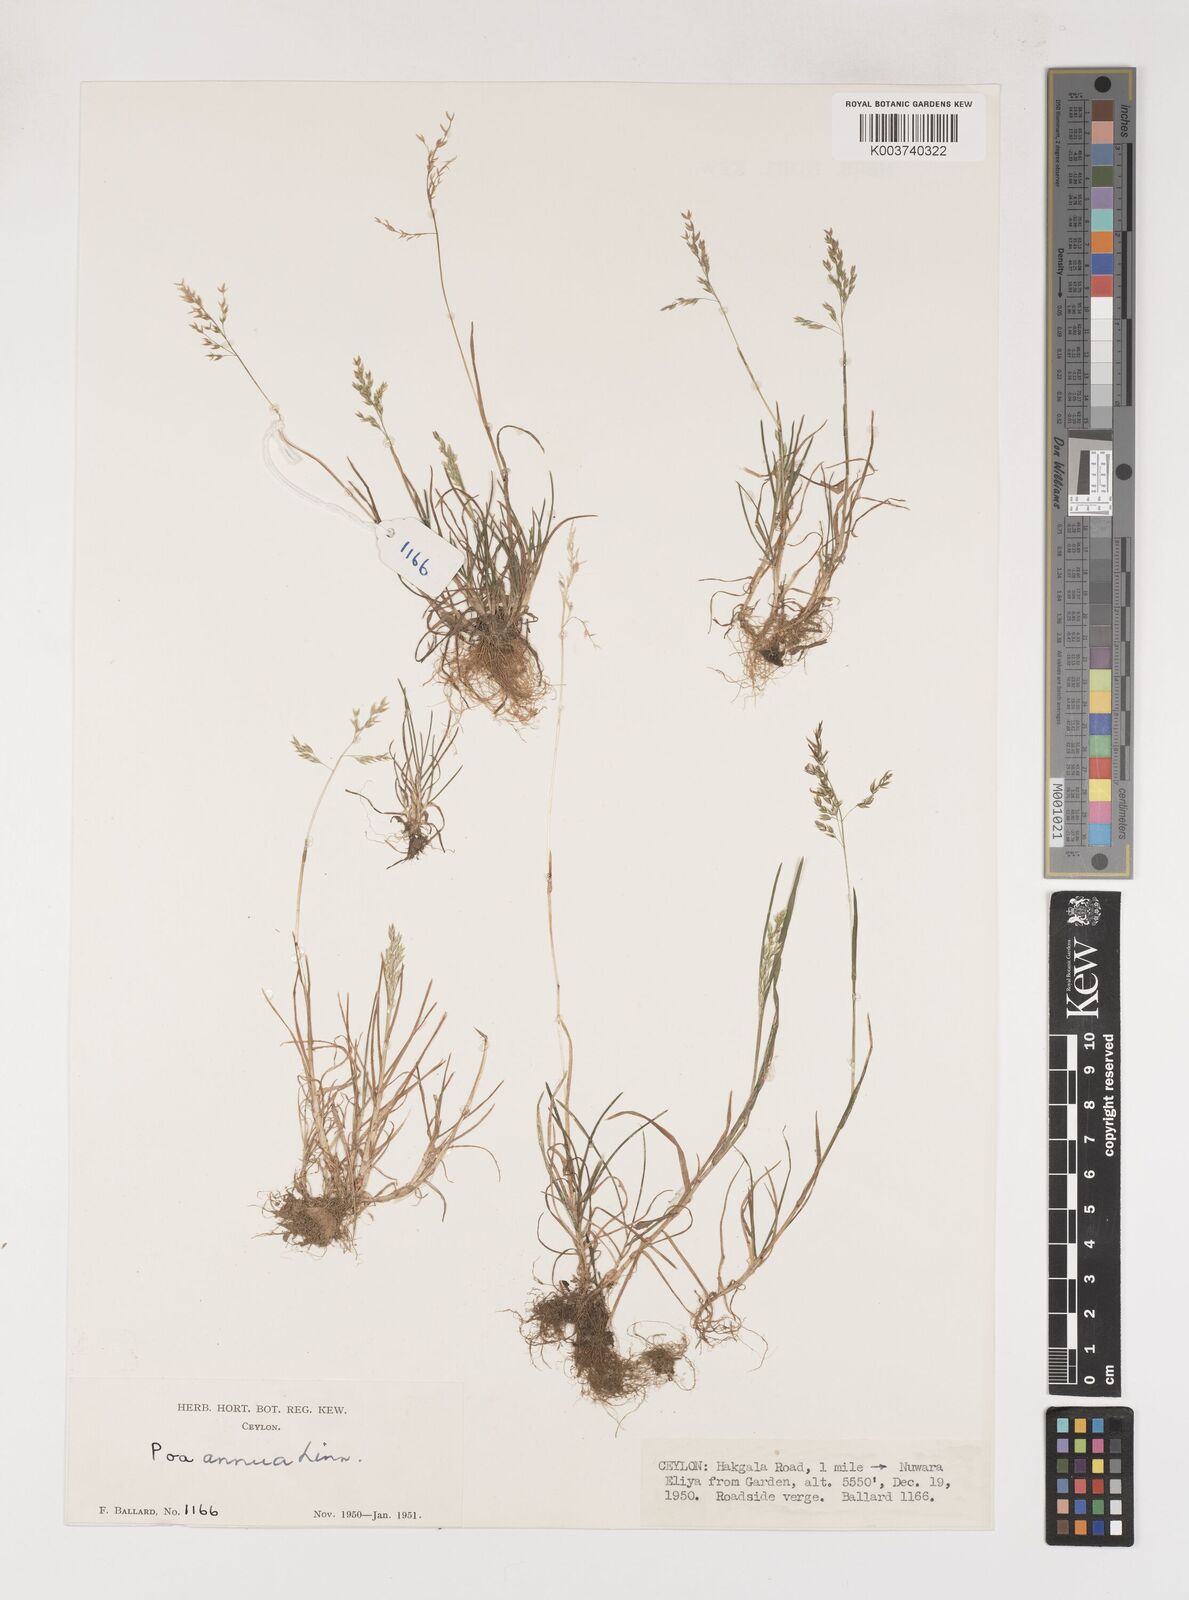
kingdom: Plantae
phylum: Tracheophyta
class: Liliopsida
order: Poales
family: Poaceae
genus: Poa
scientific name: Poa annua
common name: Annual bluegrass
